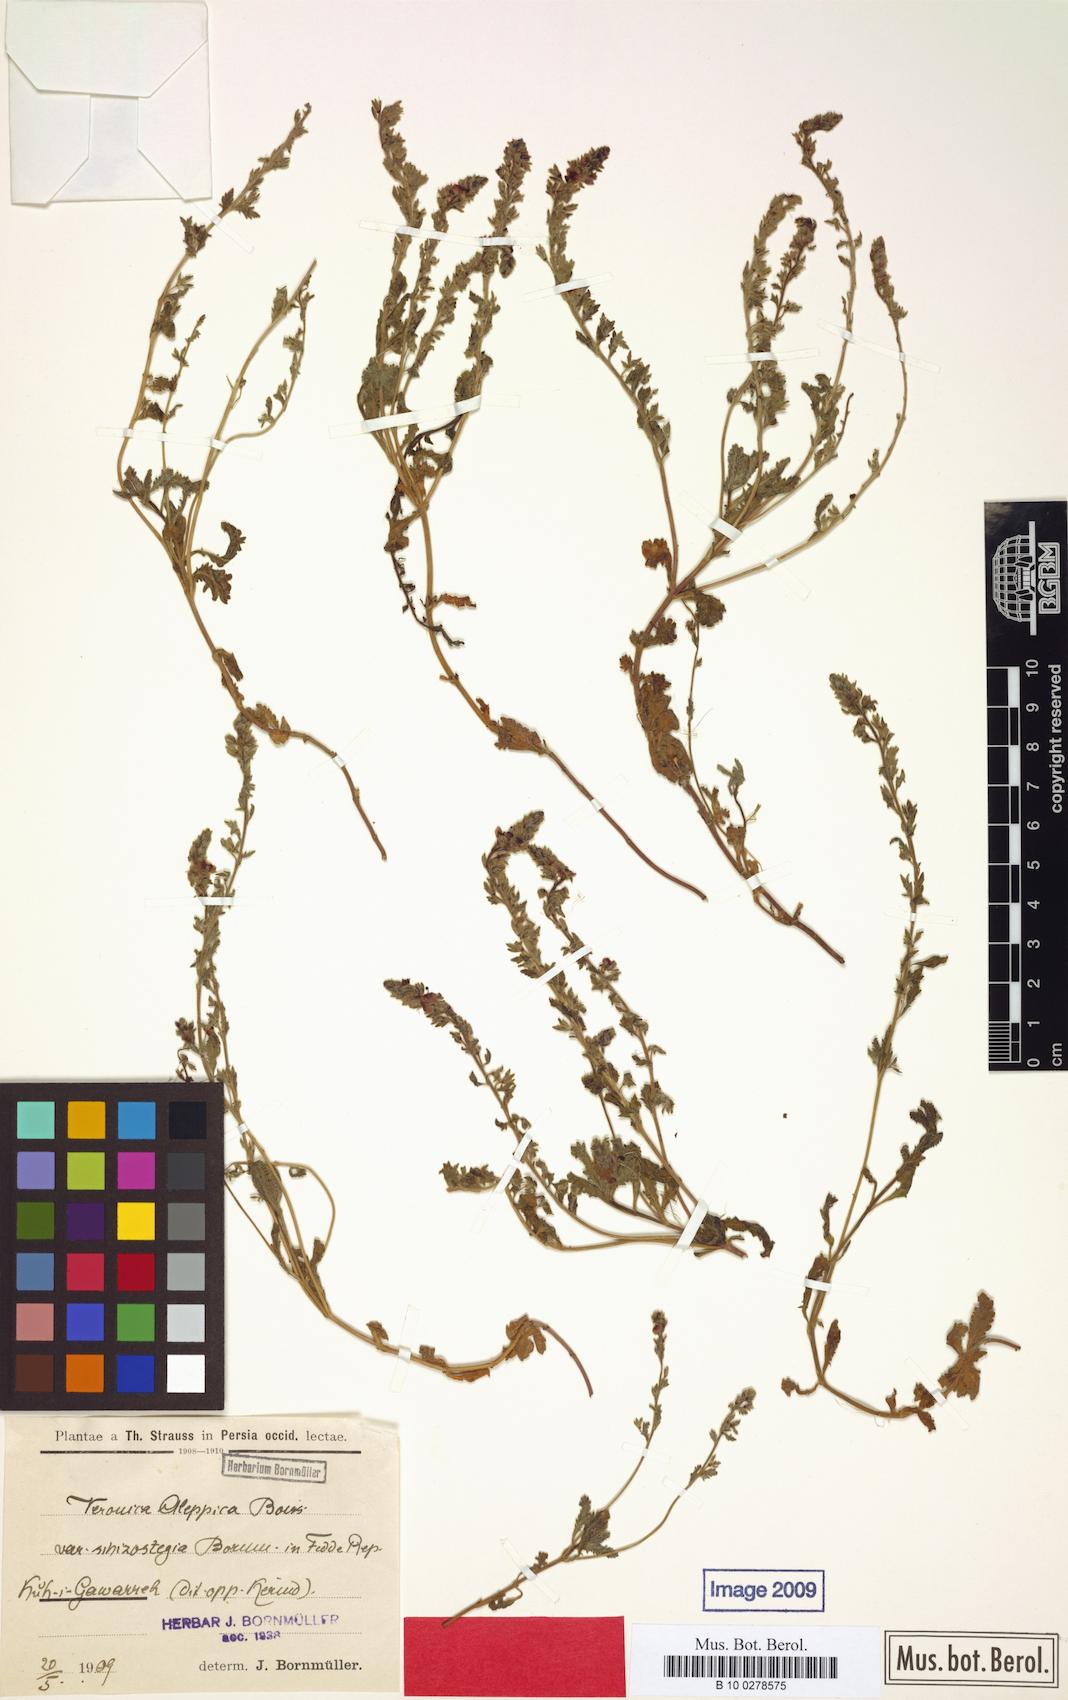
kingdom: Plantae
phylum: Tracheophyta
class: Magnoliopsida
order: Lamiales
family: Plantaginaceae
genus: Veronica
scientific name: Veronica macrostachya
